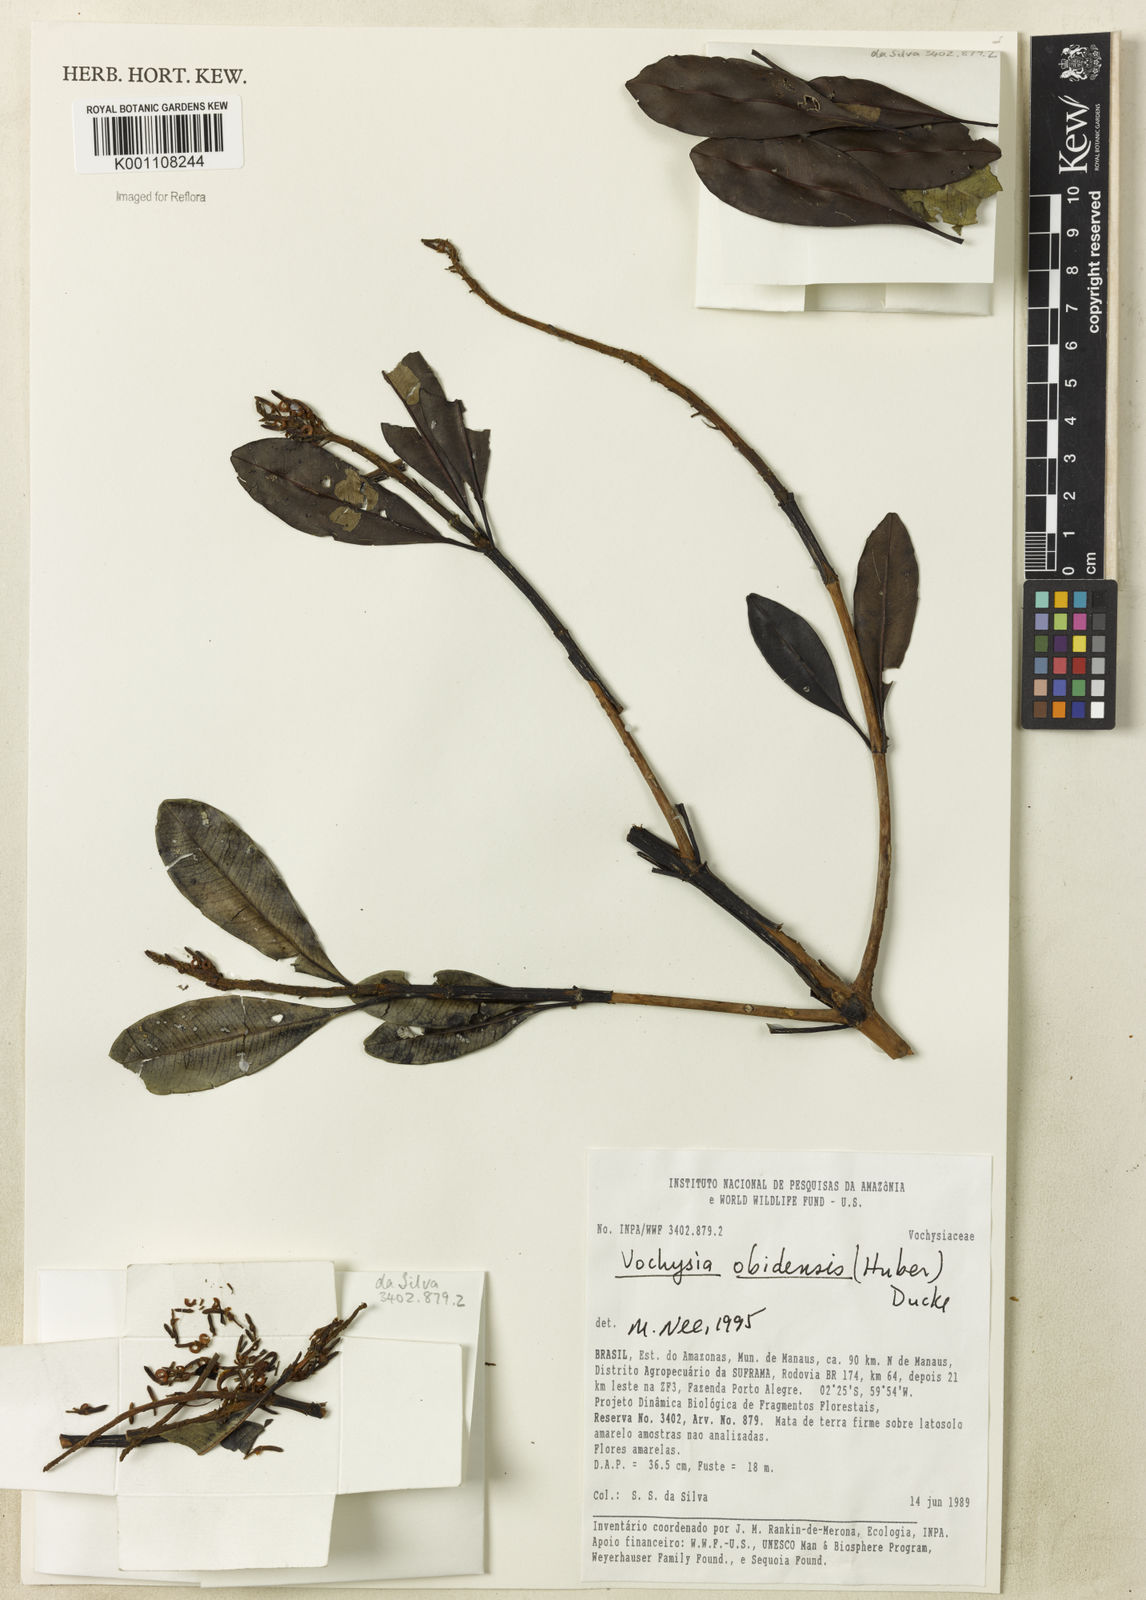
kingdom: Plantae
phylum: Tracheophyta
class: Magnoliopsida
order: Myrtales
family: Vochysiaceae
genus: Vochysia
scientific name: Vochysia obidensis
